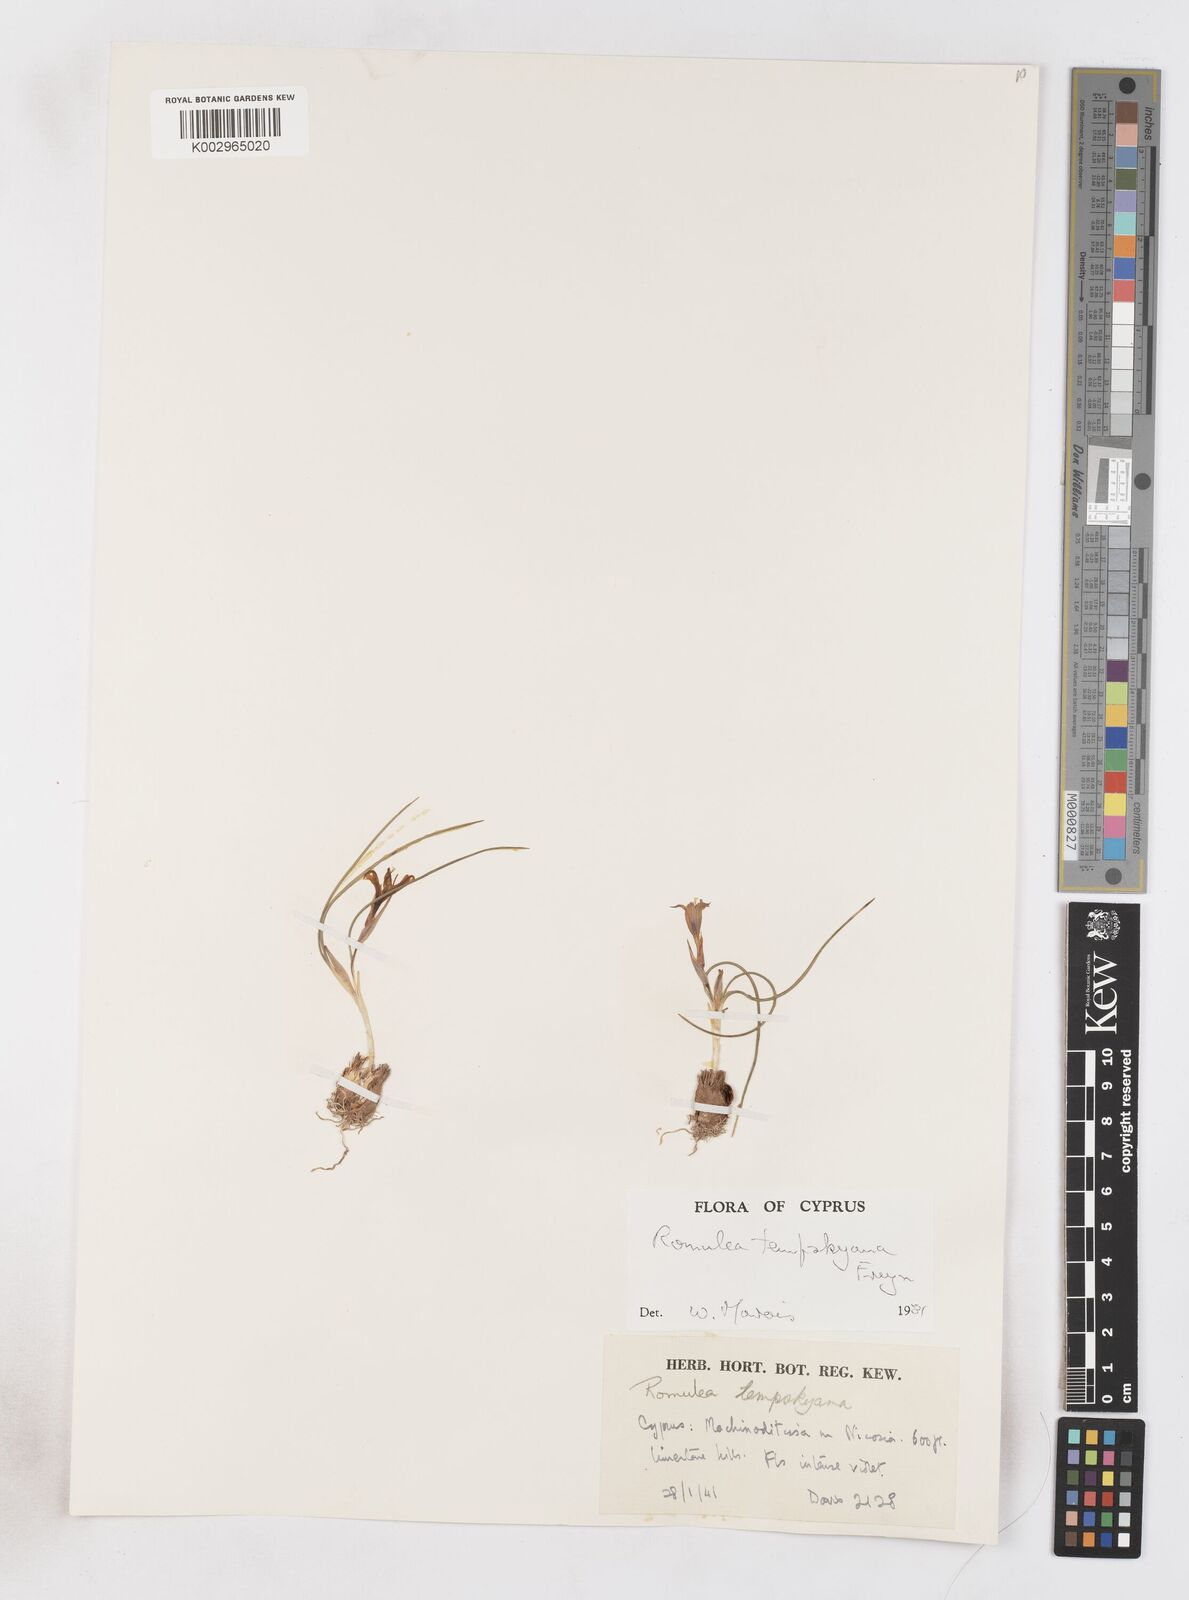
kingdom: Plantae
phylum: Tracheophyta
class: Liliopsida
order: Asparagales
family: Iridaceae
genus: Romulea
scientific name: Romulea tempskyana
